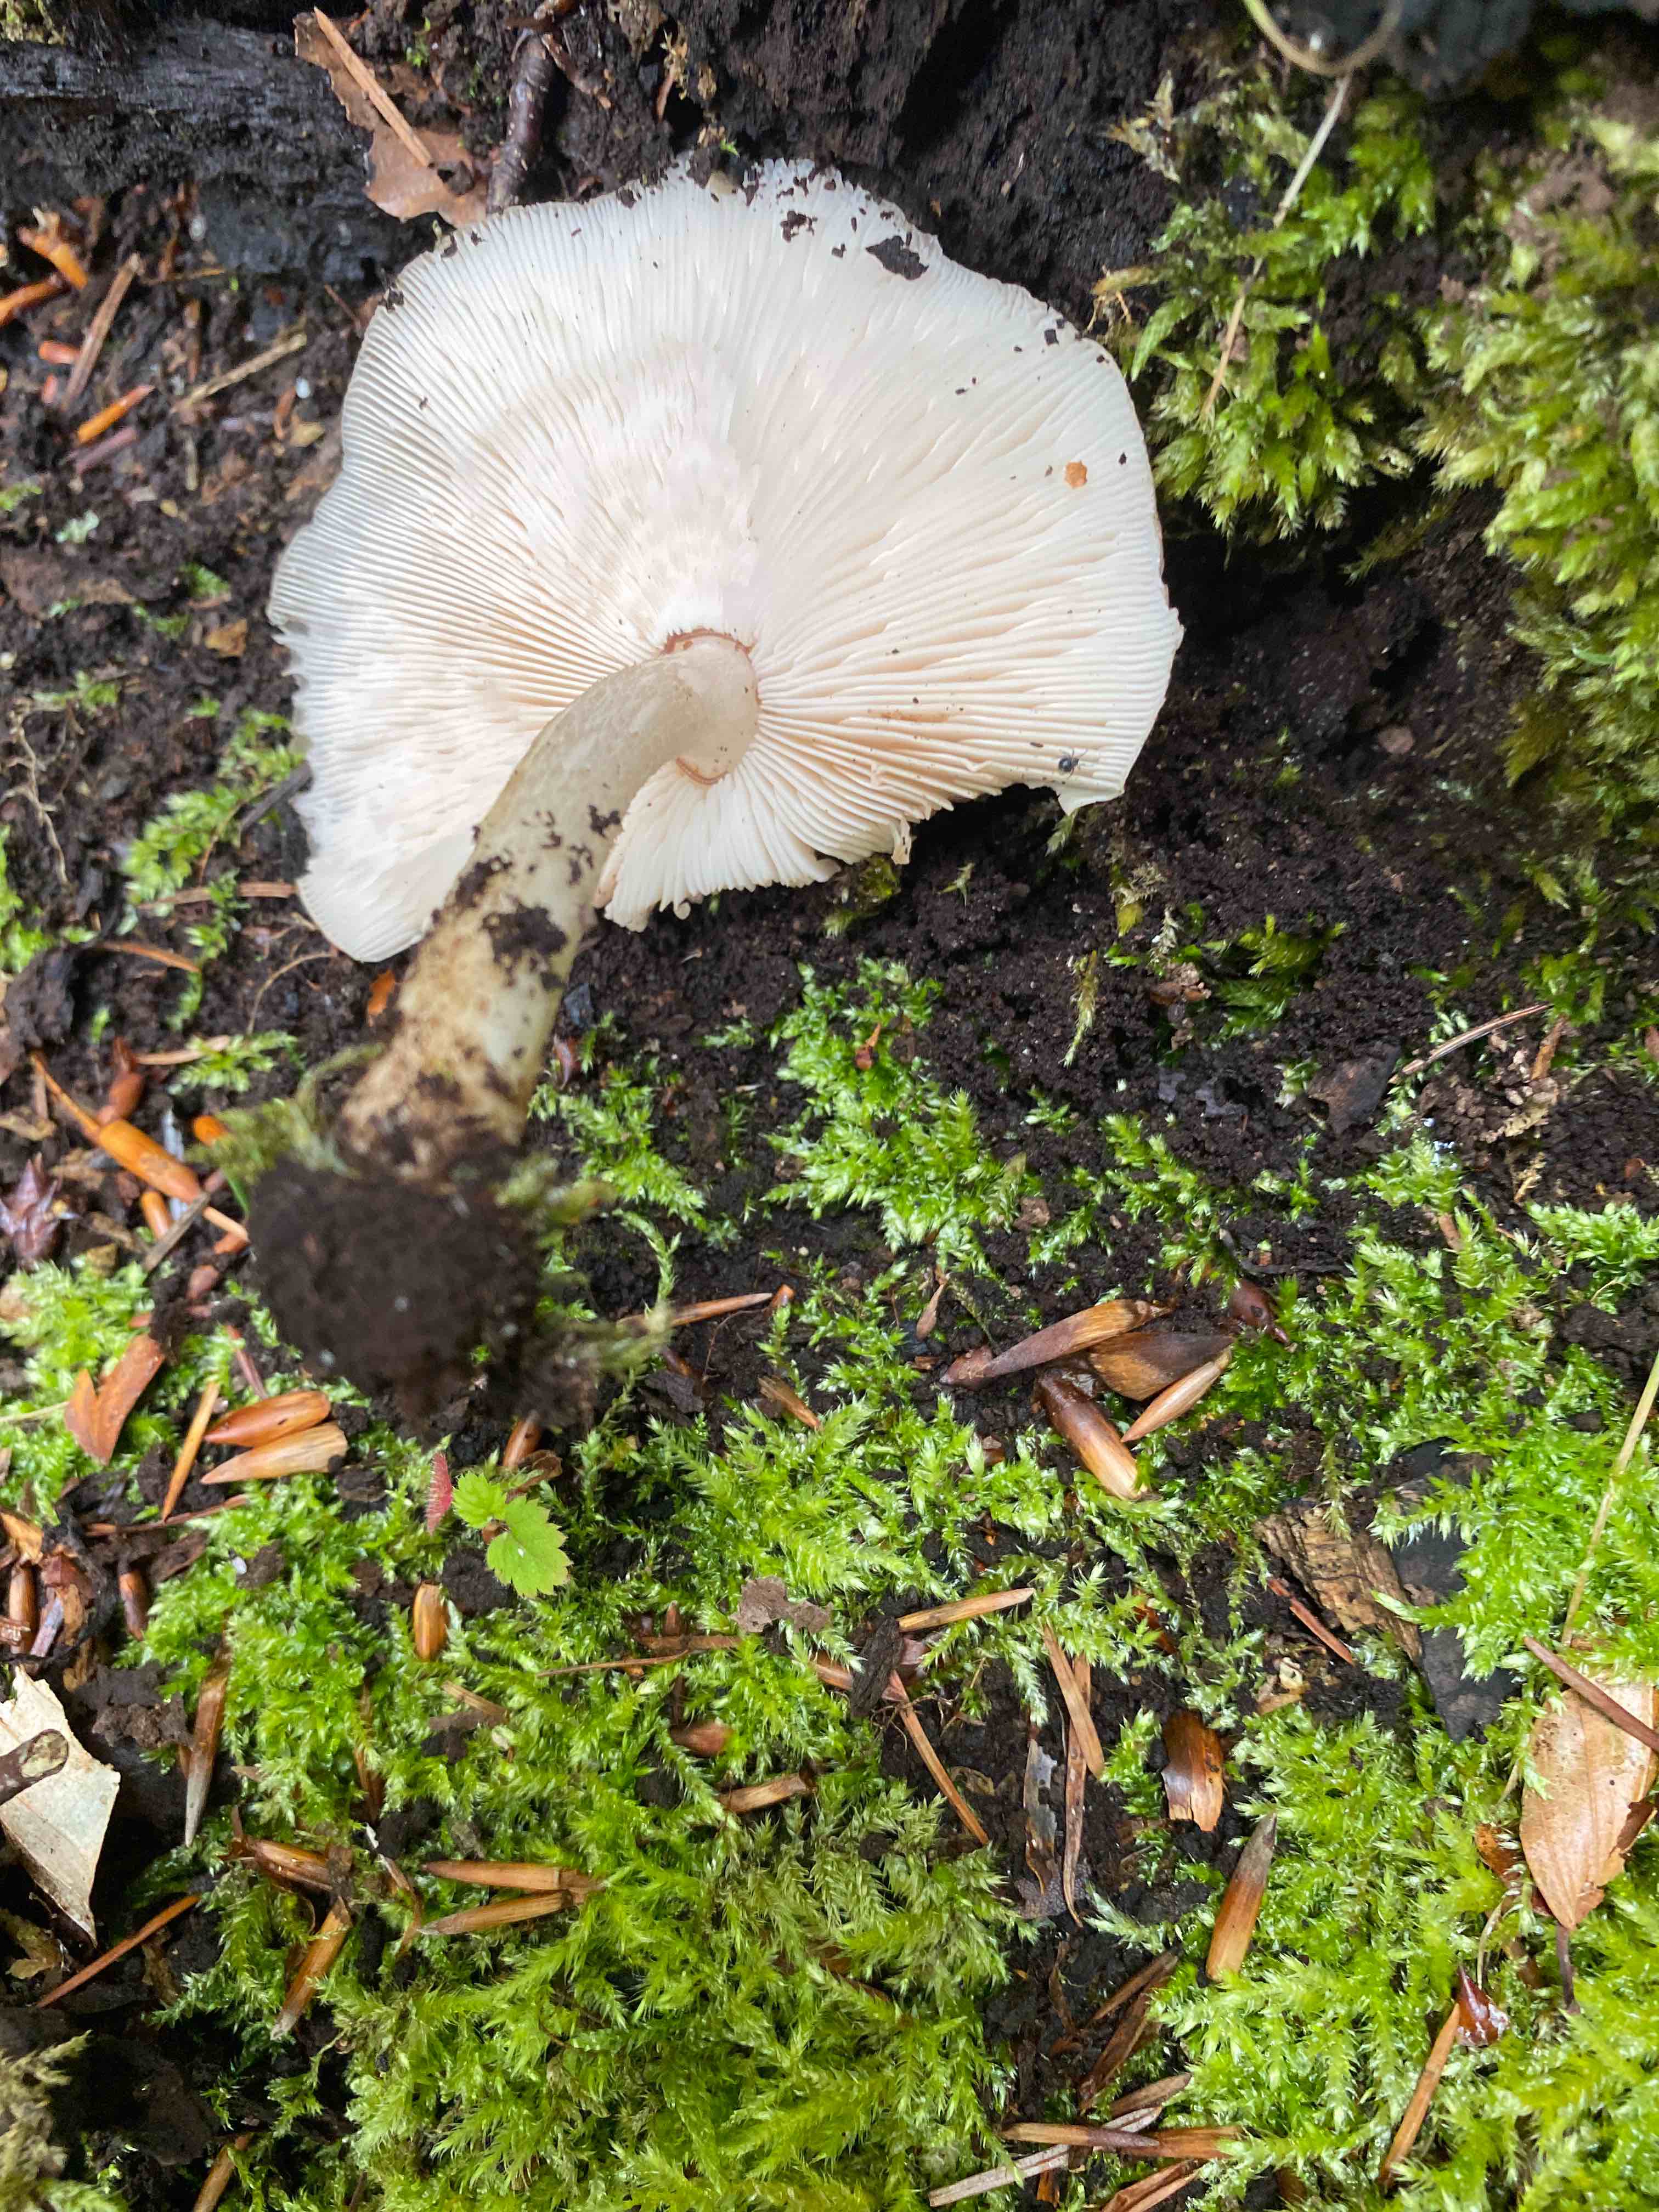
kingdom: Fungi
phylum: Basidiomycota
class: Agaricomycetes
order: Agaricales
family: Pluteaceae
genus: Pluteus
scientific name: Pluteus cervinus
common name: sodfarvet skærmhat
